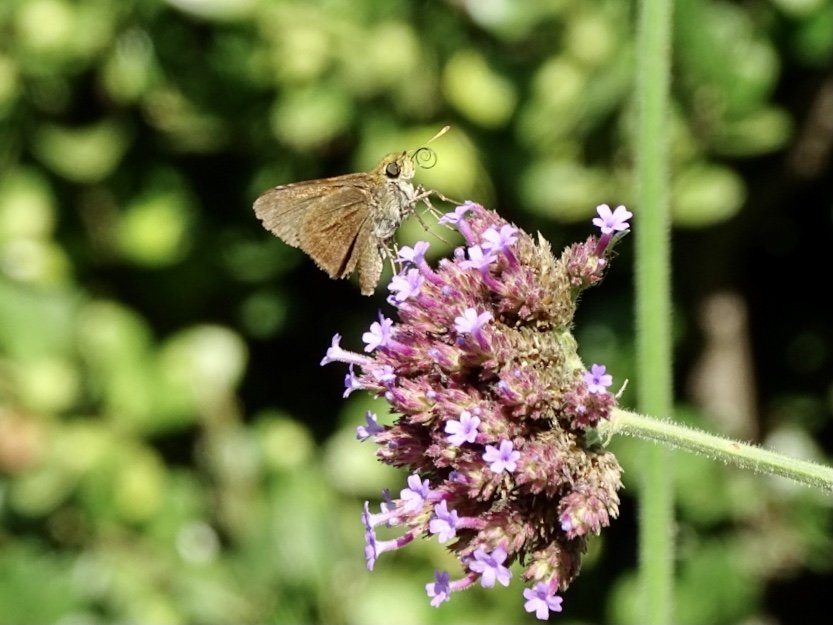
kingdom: Animalia
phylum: Arthropoda
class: Insecta
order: Lepidoptera
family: Hesperiidae
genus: Euphyes
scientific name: Euphyes vestris
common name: Dun Skipper
